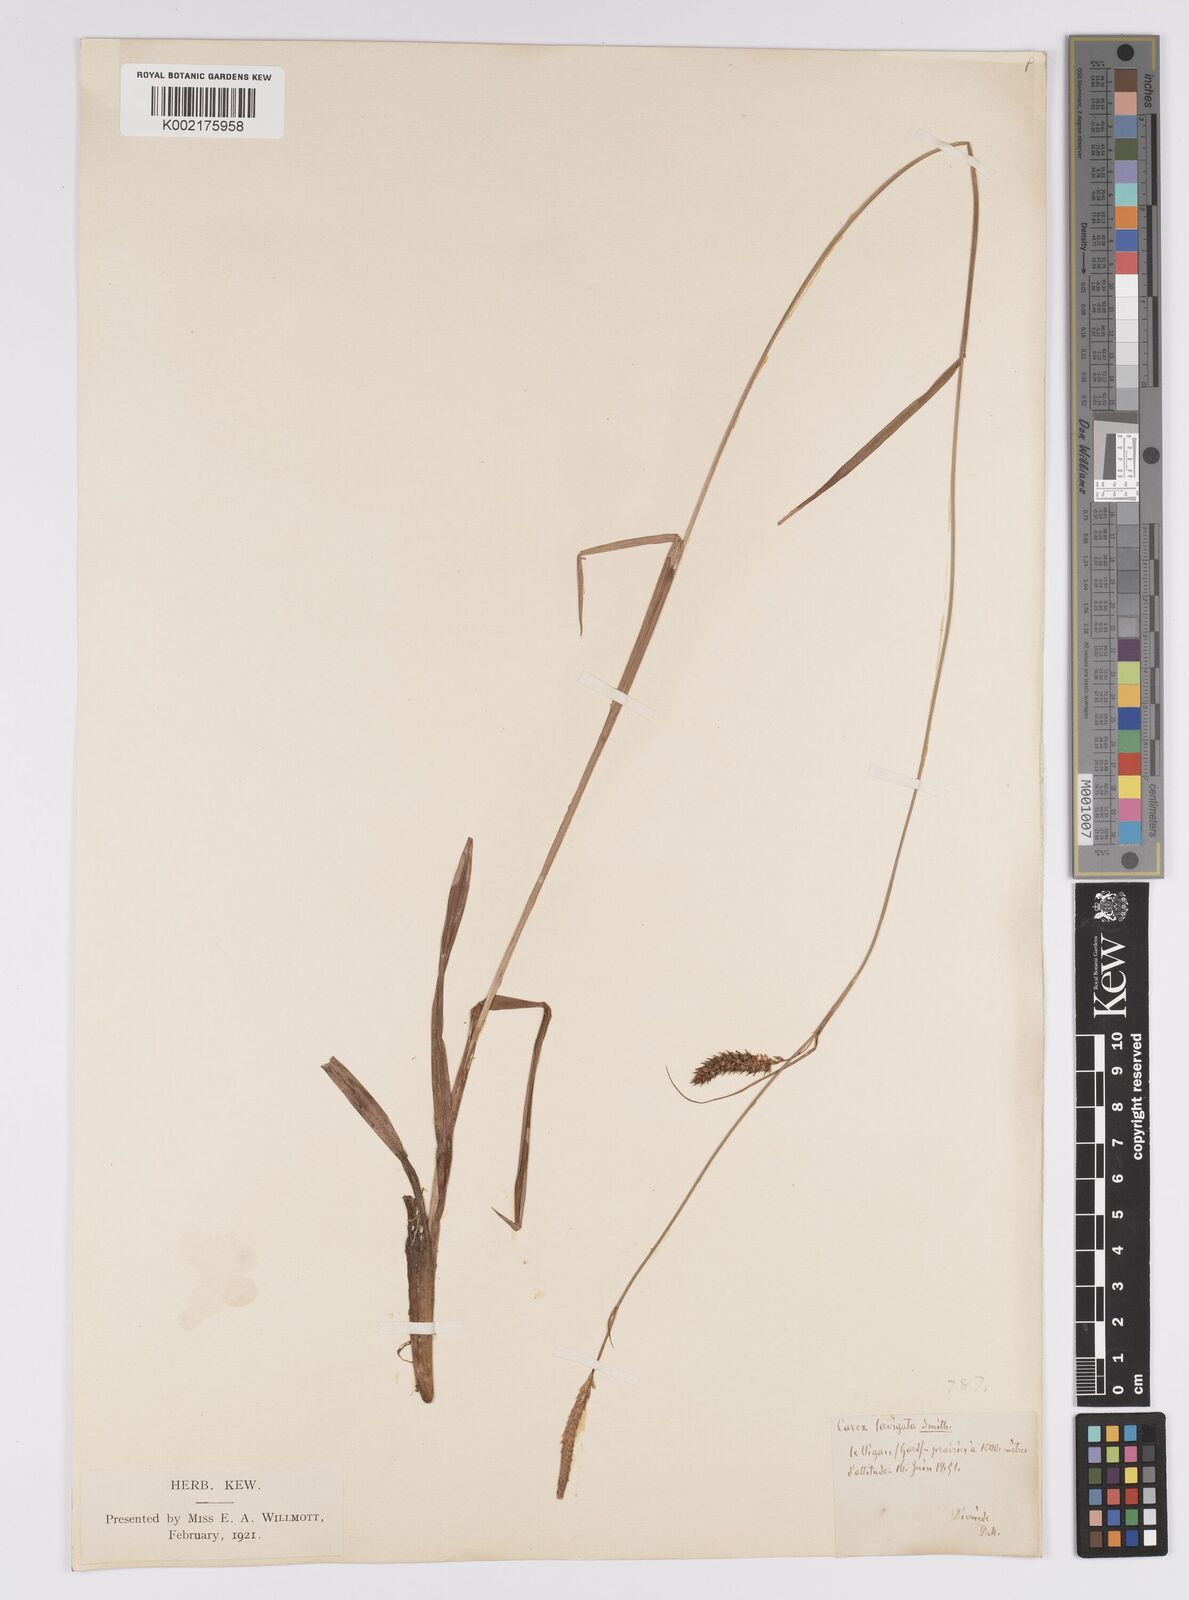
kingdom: Plantae
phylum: Tracheophyta
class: Liliopsida
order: Poales
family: Cyperaceae
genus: Carex
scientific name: Carex laevigata
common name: Smooth-stalked sedge
